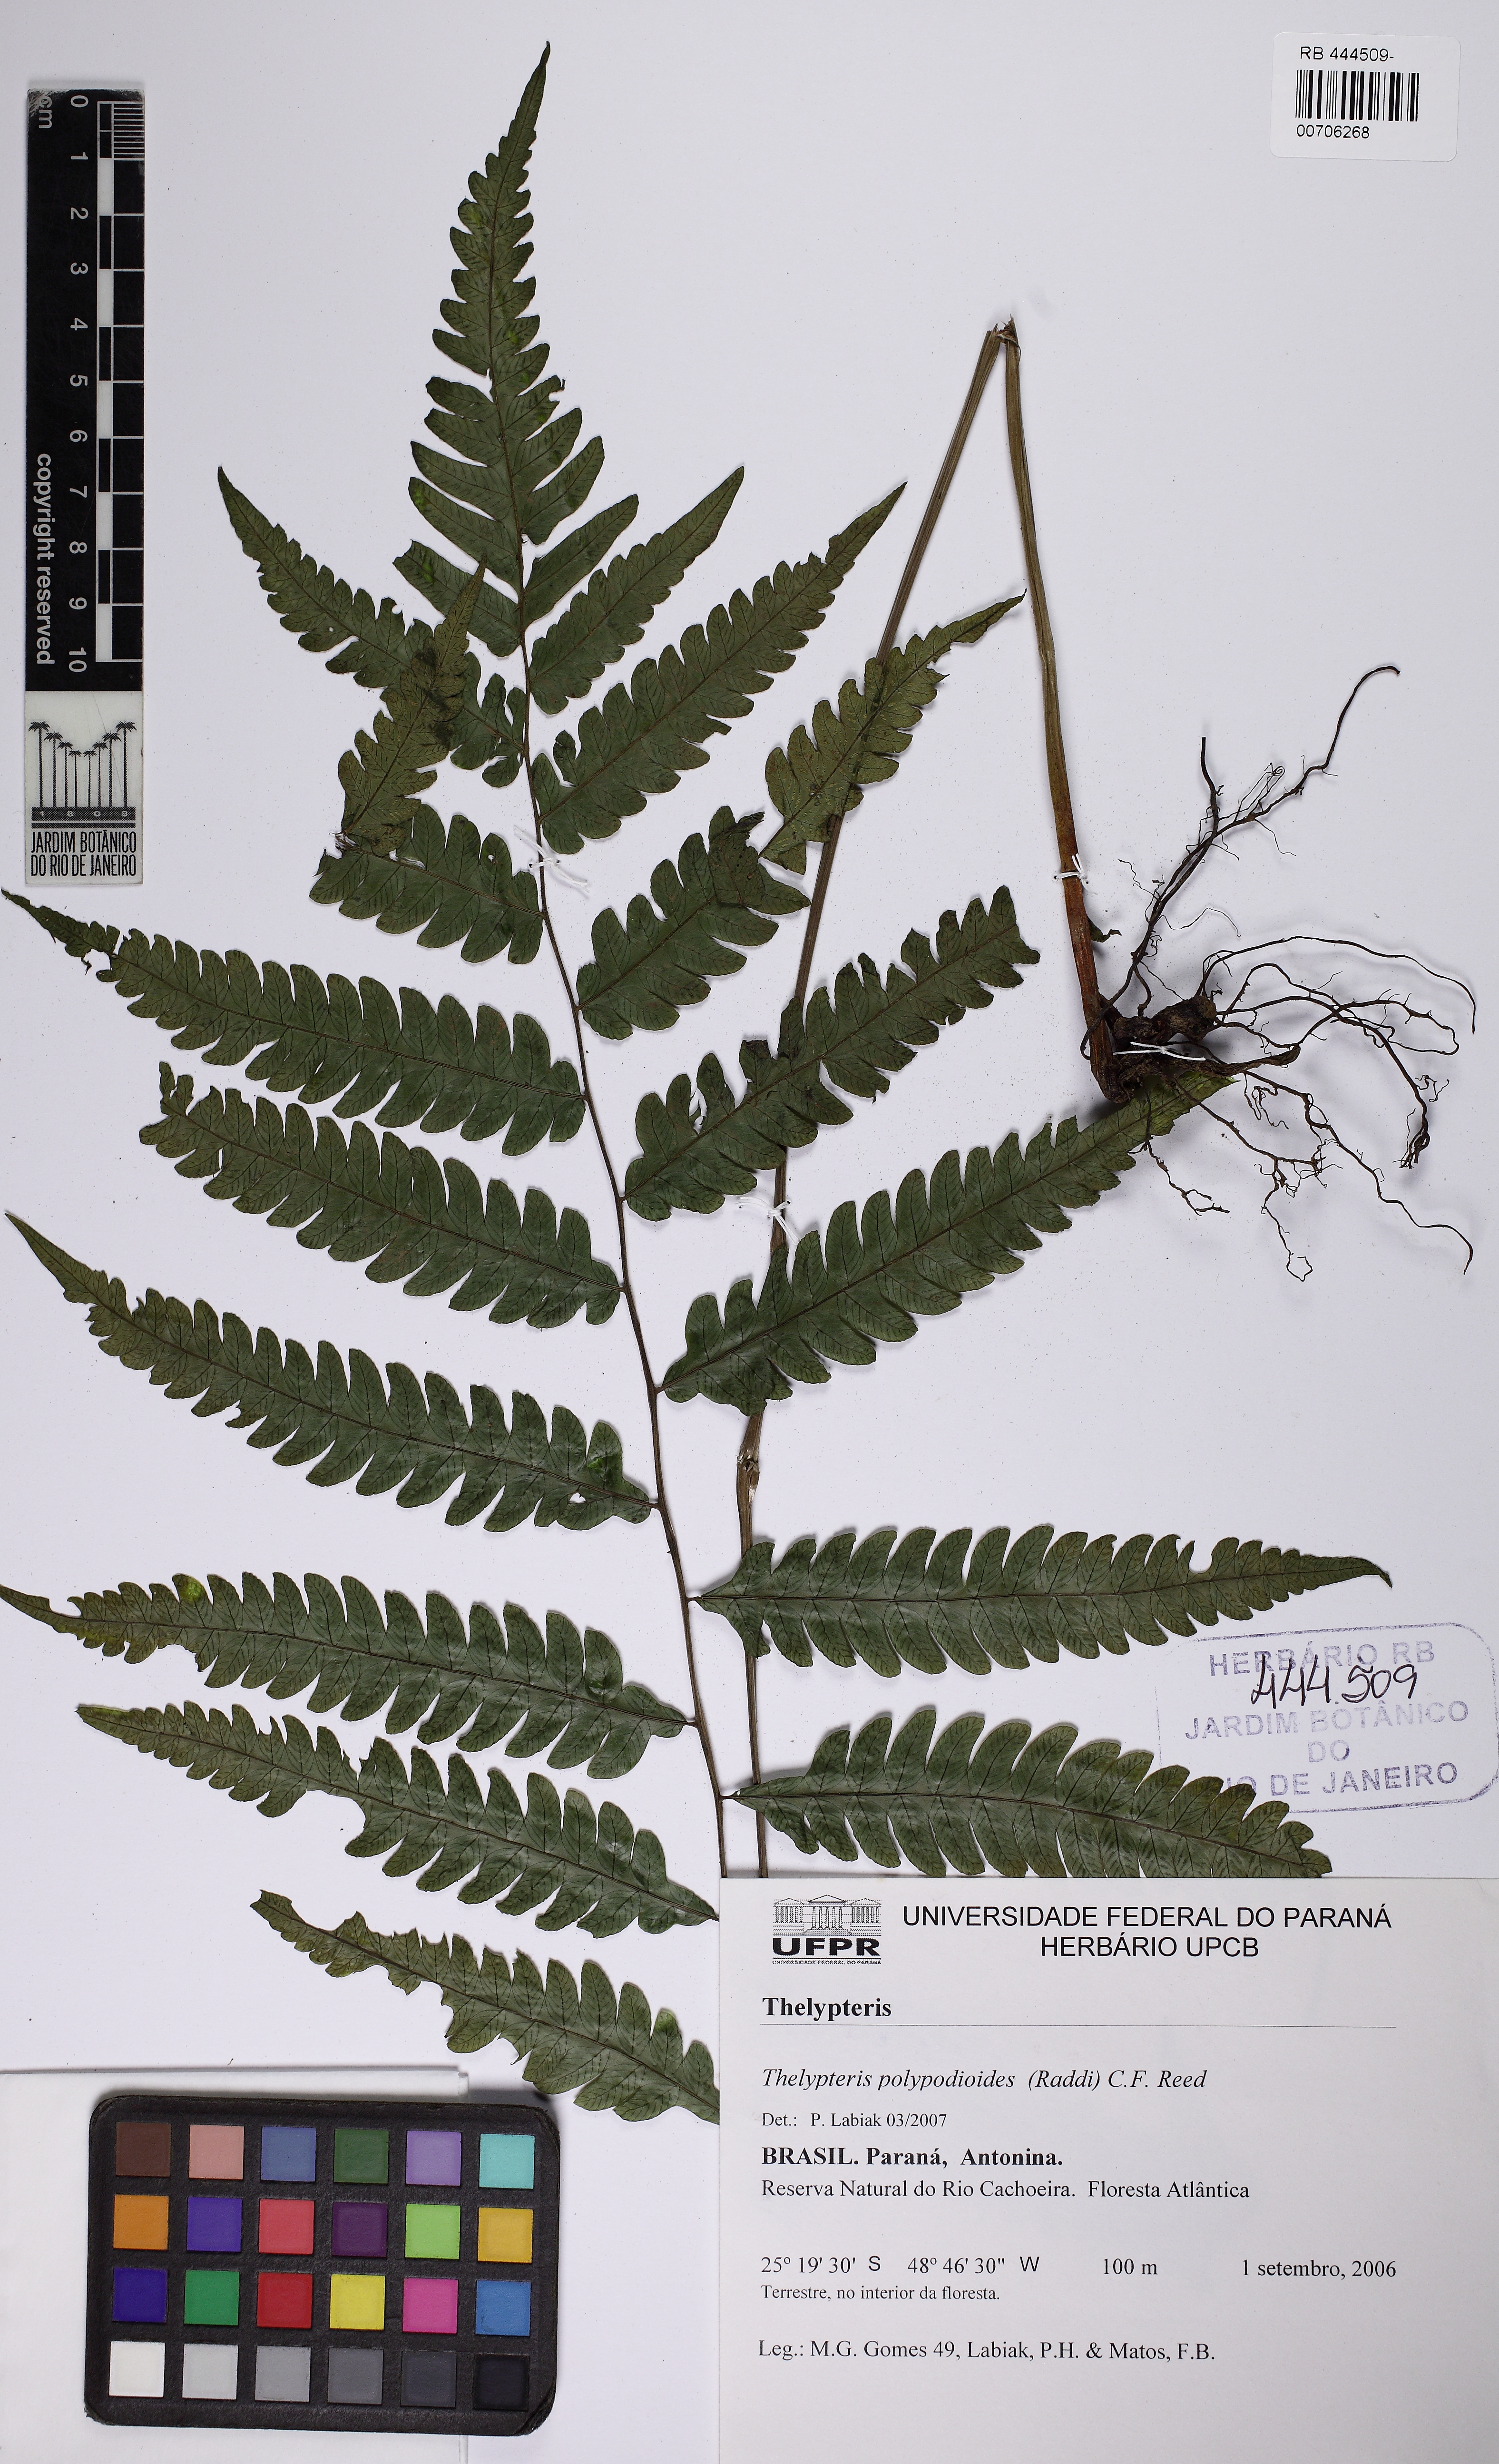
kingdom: Plantae
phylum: Tracheophyta
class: Polypodiopsida
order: Polypodiales
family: Thelypteridaceae
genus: Steiropteris
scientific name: Steiropteris polypodioides
